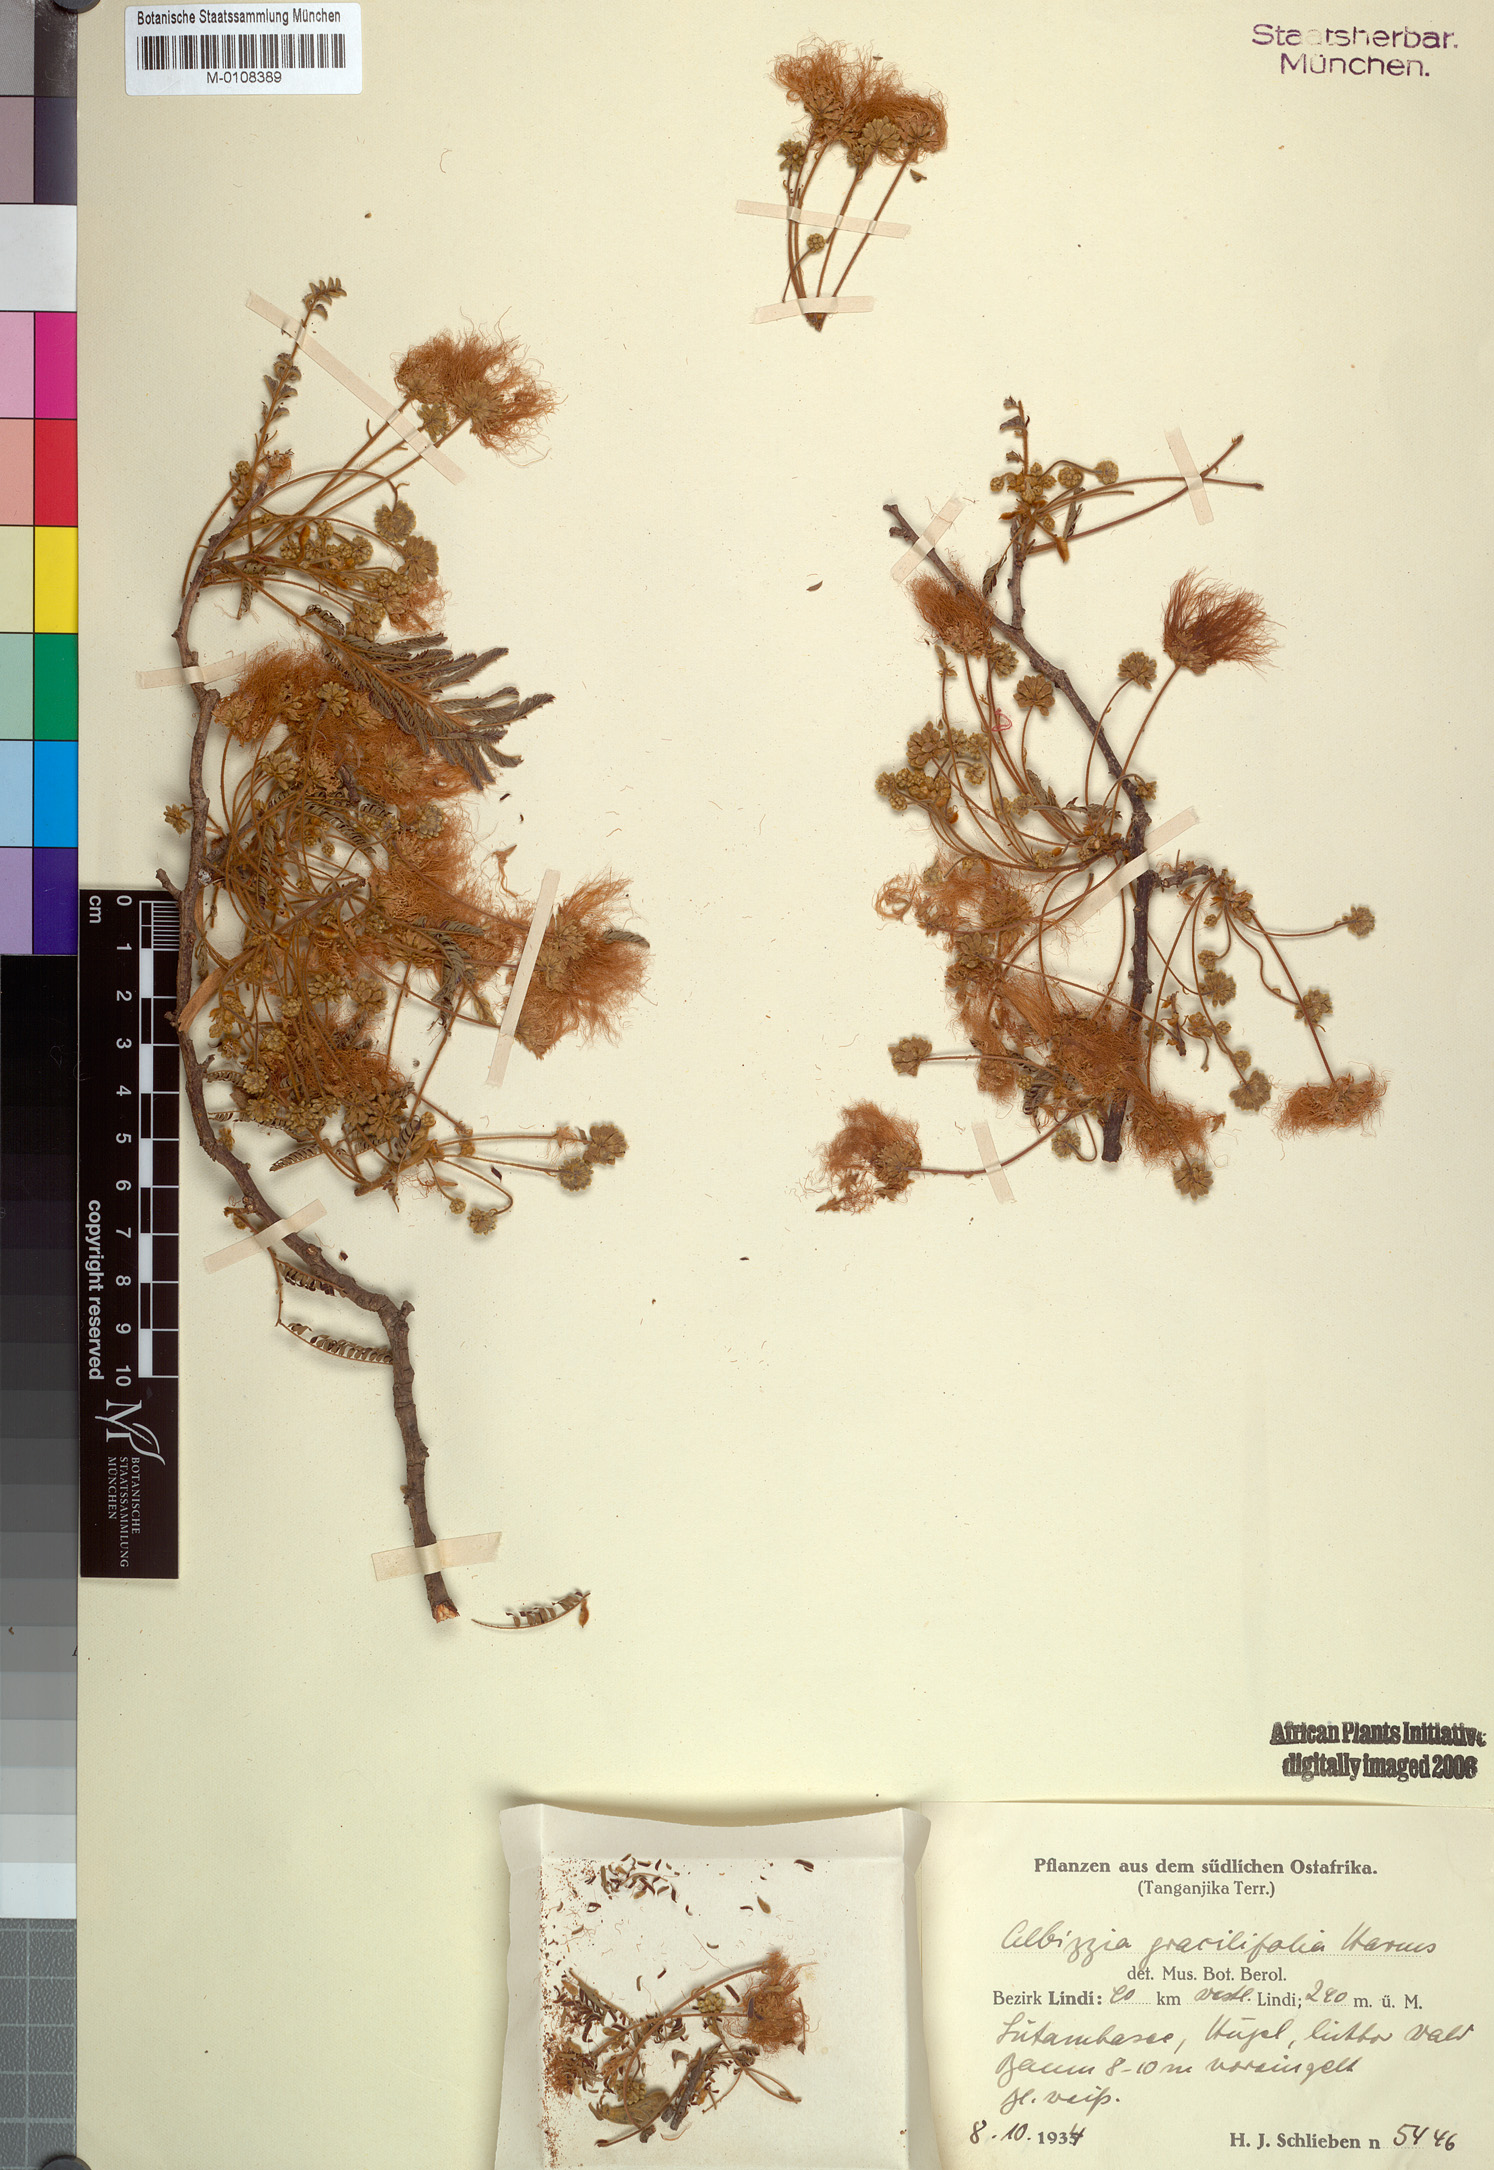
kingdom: Plantae
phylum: Tracheophyta
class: Magnoliopsida
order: Fabales
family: Fabaceae
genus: Albizia
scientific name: Albizia amara
